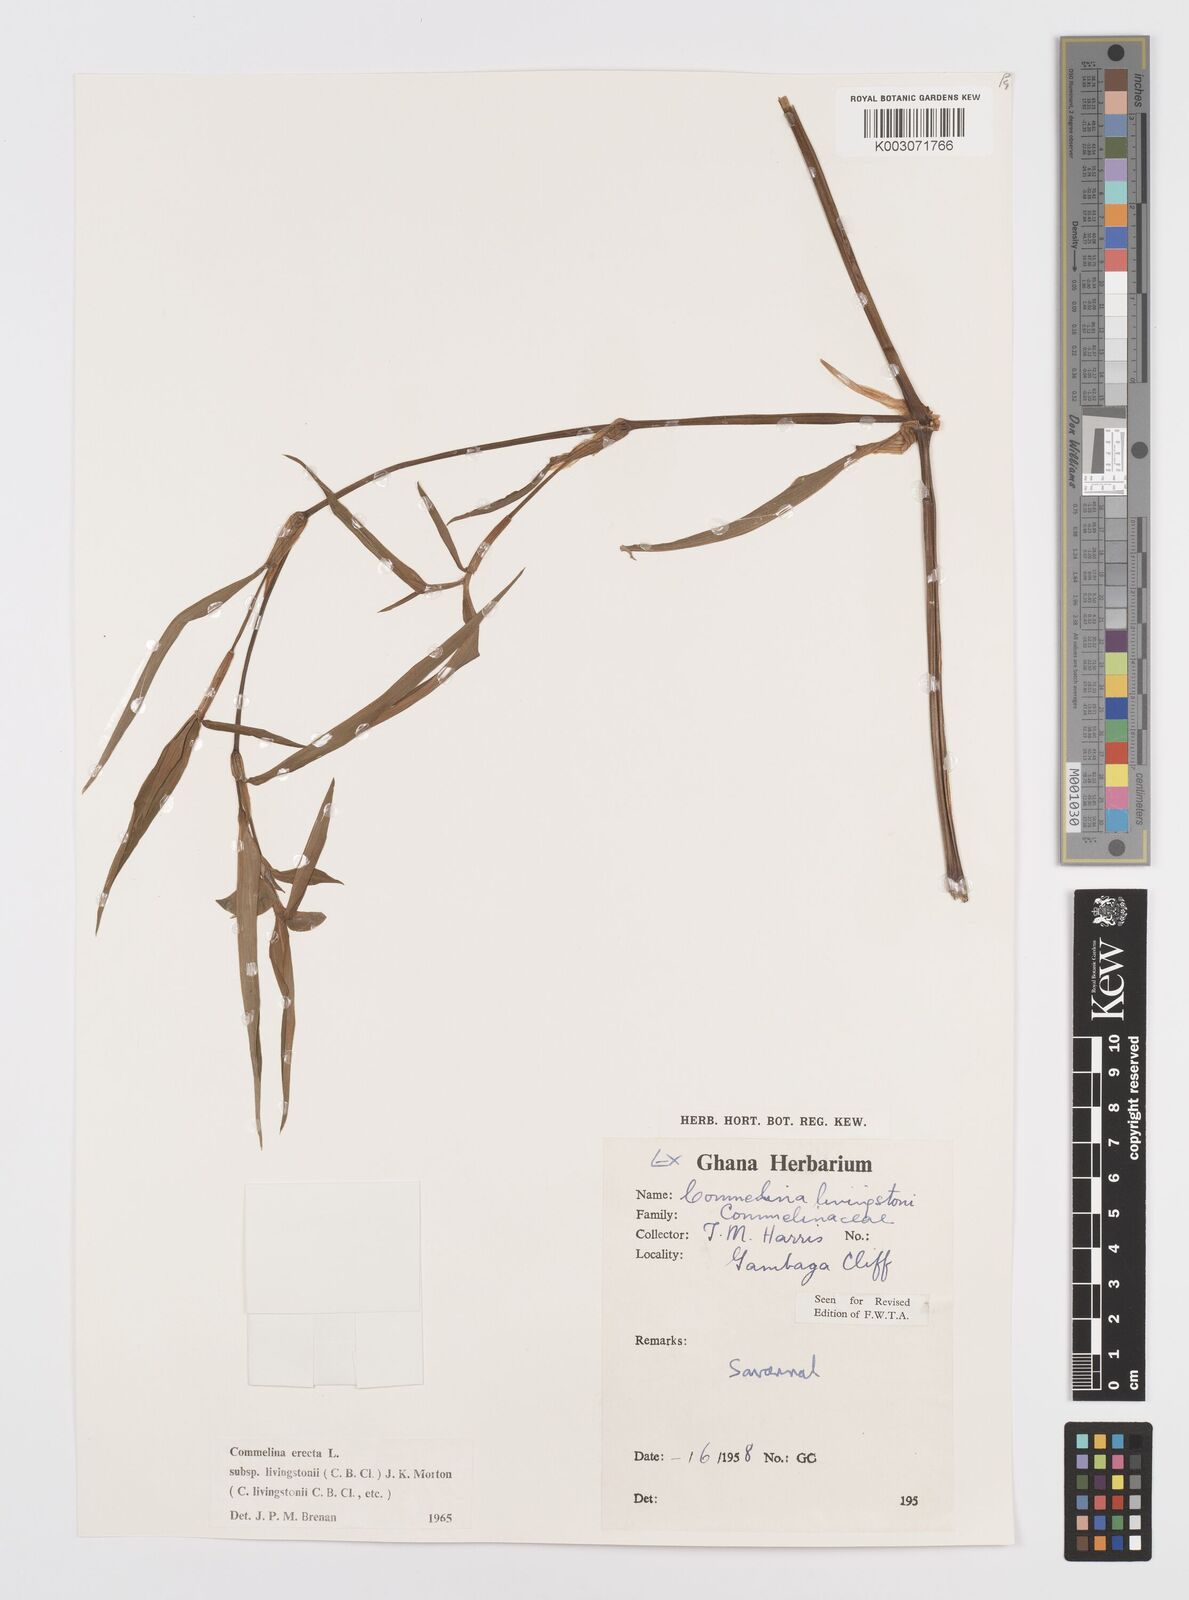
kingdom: Plantae
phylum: Tracheophyta
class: Liliopsida
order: Commelinales
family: Commelinaceae
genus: Commelina
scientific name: Commelina erecta
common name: Blousel blommetjie
